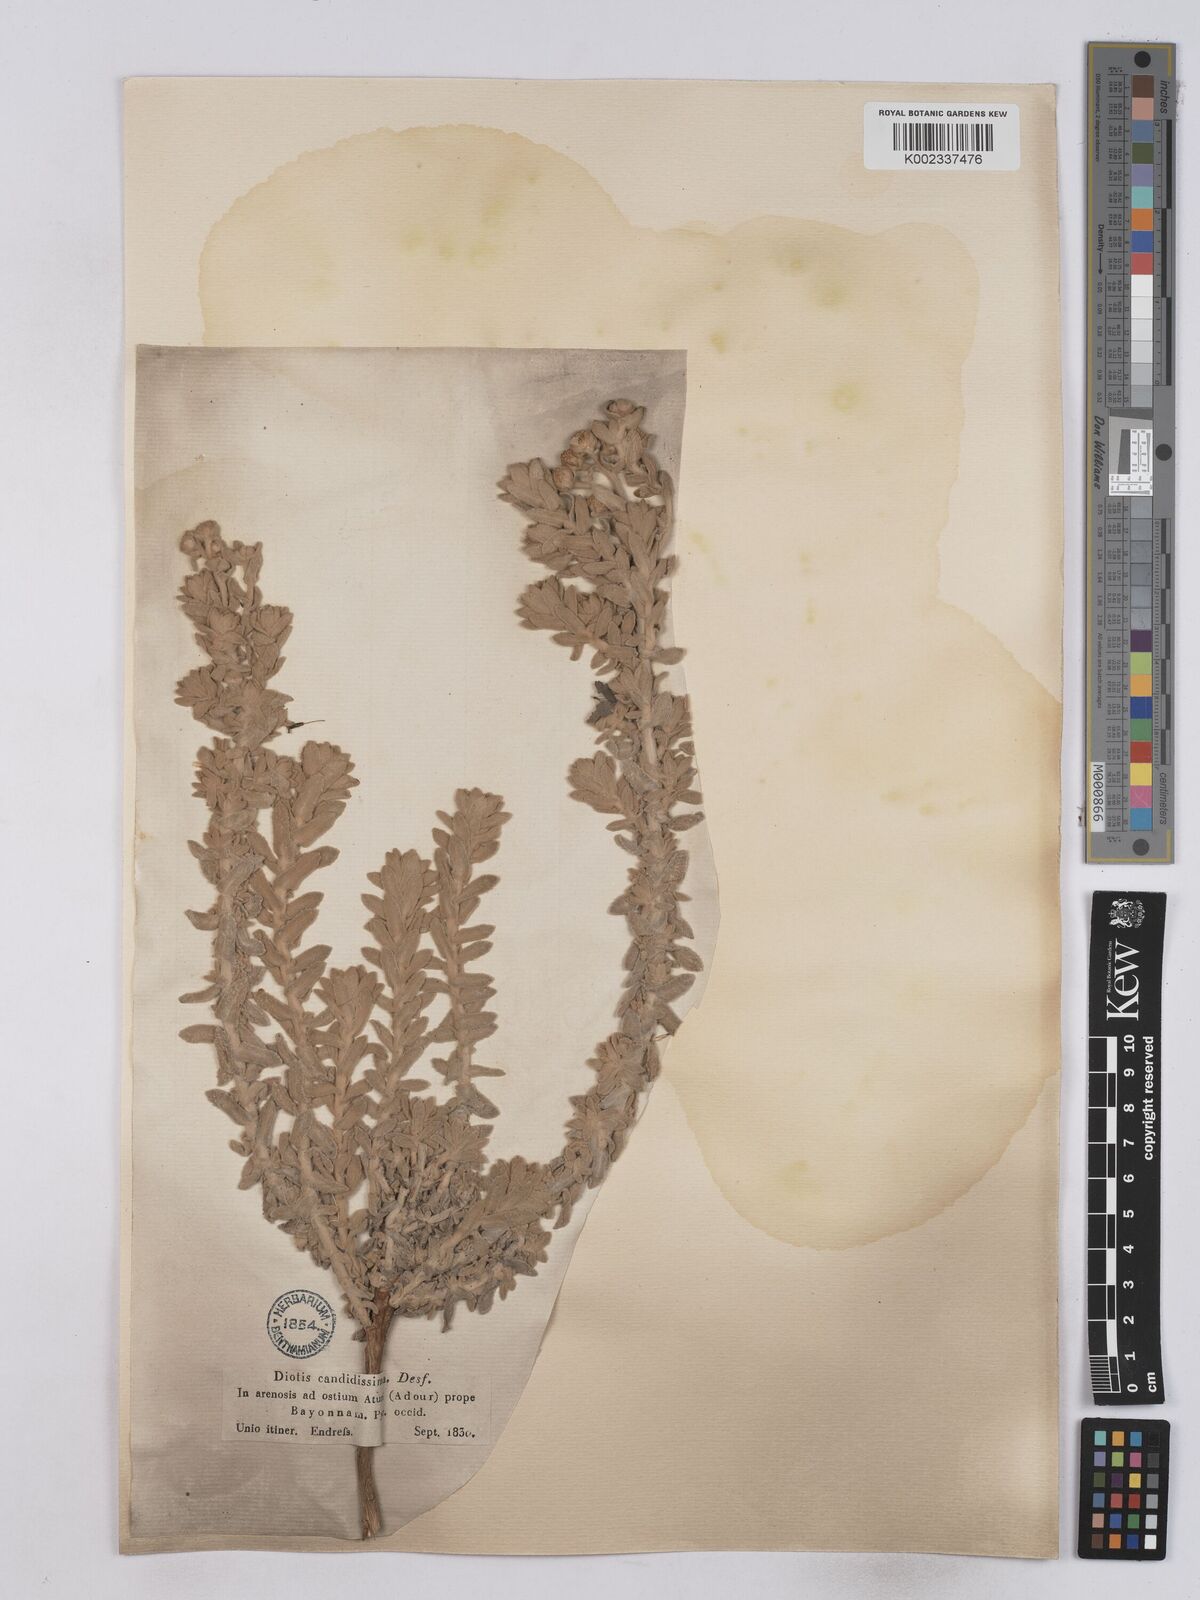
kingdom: Plantae
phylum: Tracheophyta
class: Magnoliopsida
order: Asterales
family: Asteraceae
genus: Achillea
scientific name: Achillea maritima
